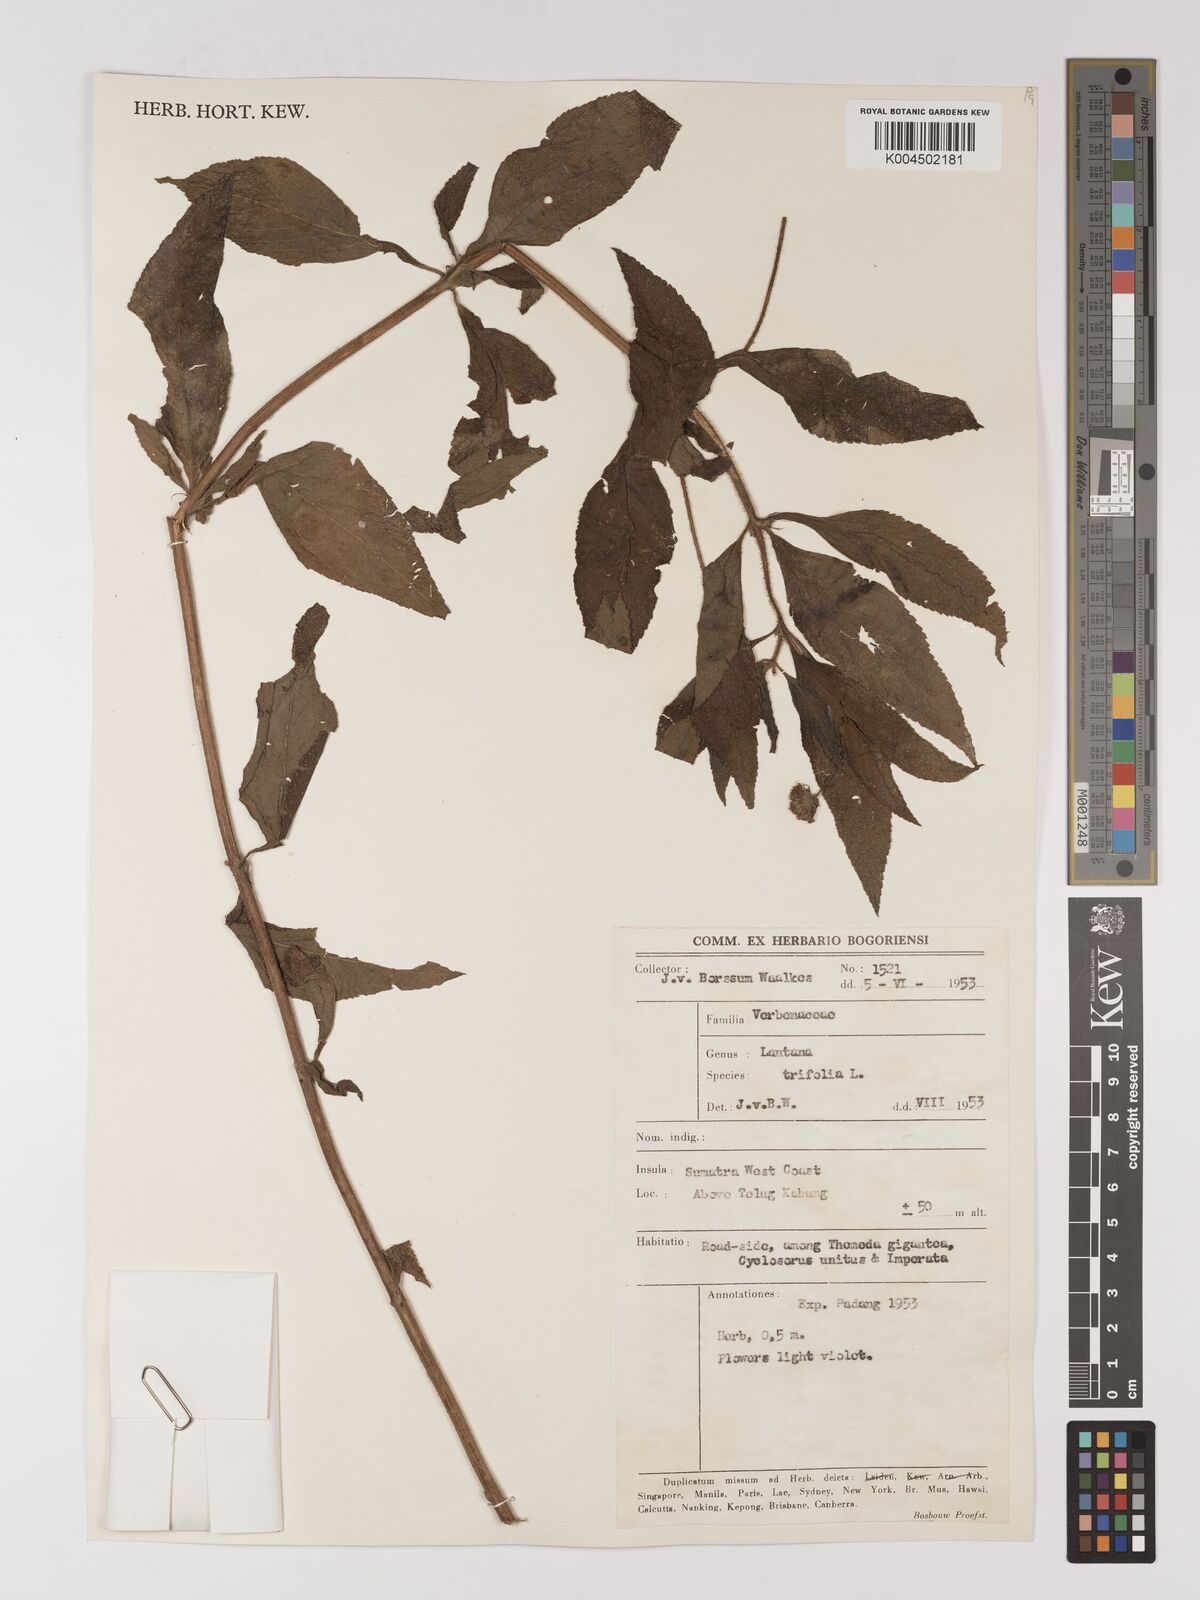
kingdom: Plantae
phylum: Tracheophyta
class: Magnoliopsida
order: Lamiales
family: Verbenaceae
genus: Lantana
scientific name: Lantana trifolia
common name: Sweet-sage
